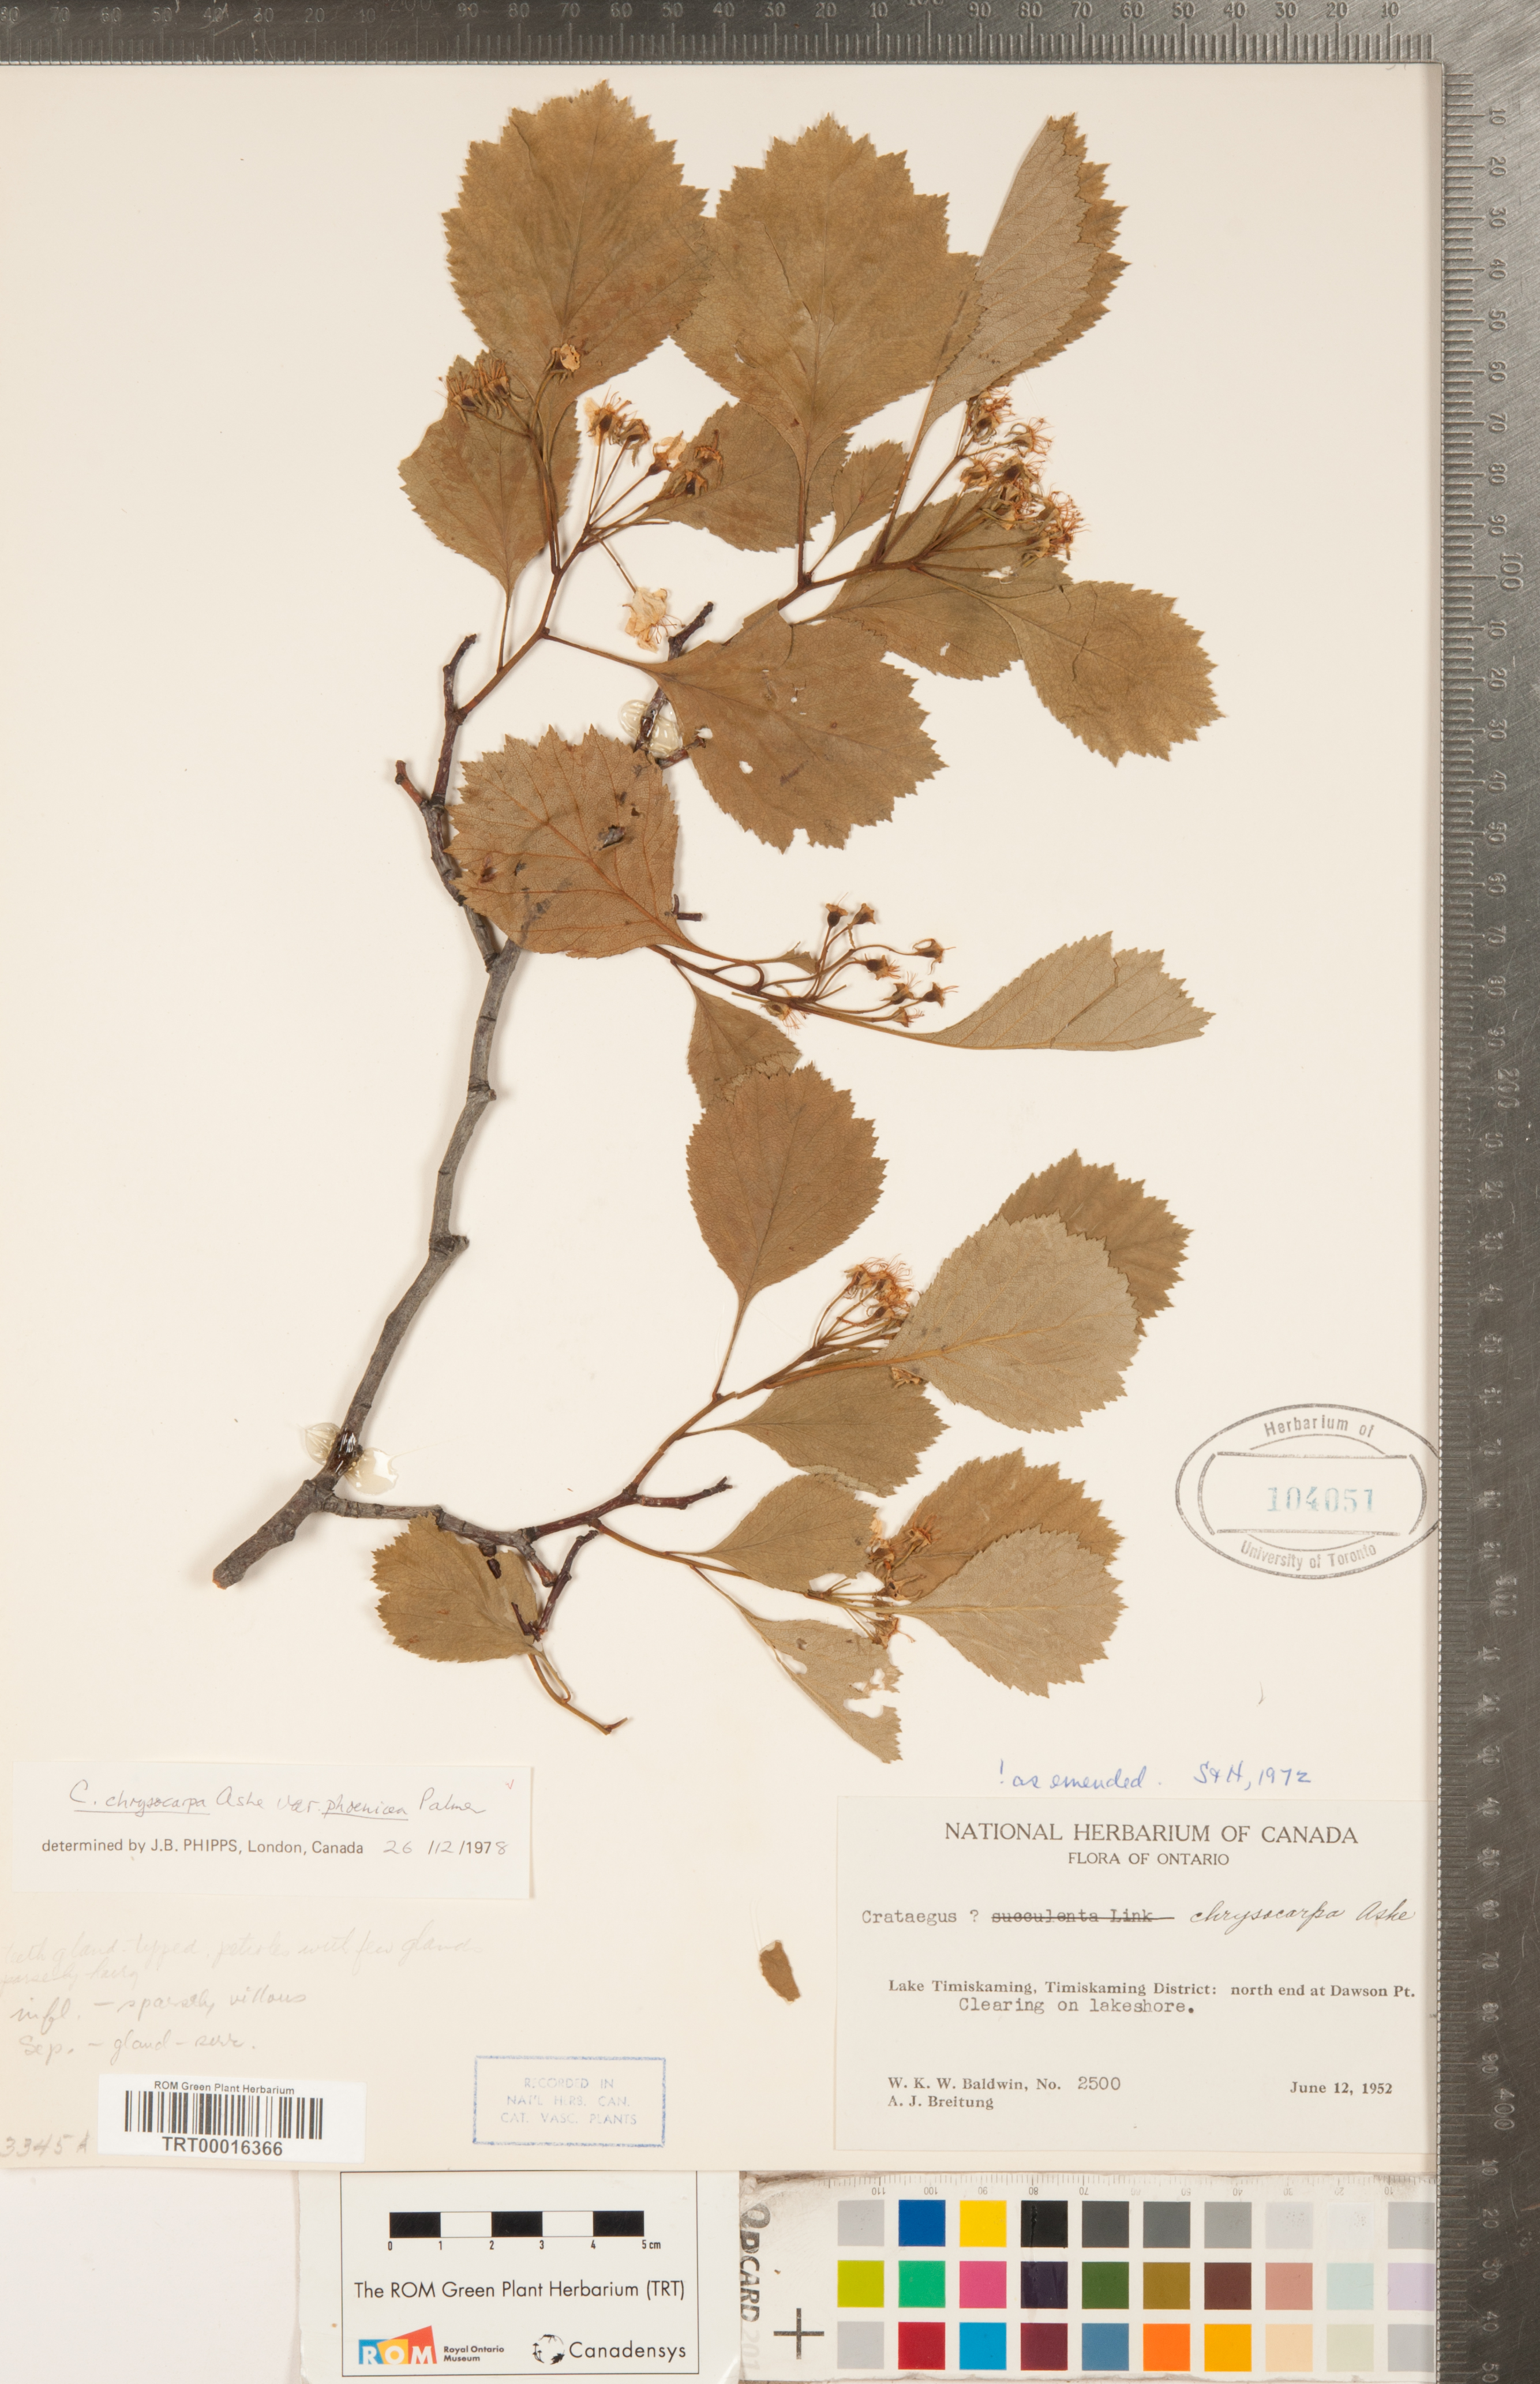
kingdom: Plantae
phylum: Tracheophyta
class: Magnoliopsida
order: Rosales
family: Rosaceae
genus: Crataegus
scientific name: Crataegus chrysocarpa
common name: Fire-berry hawthorn
